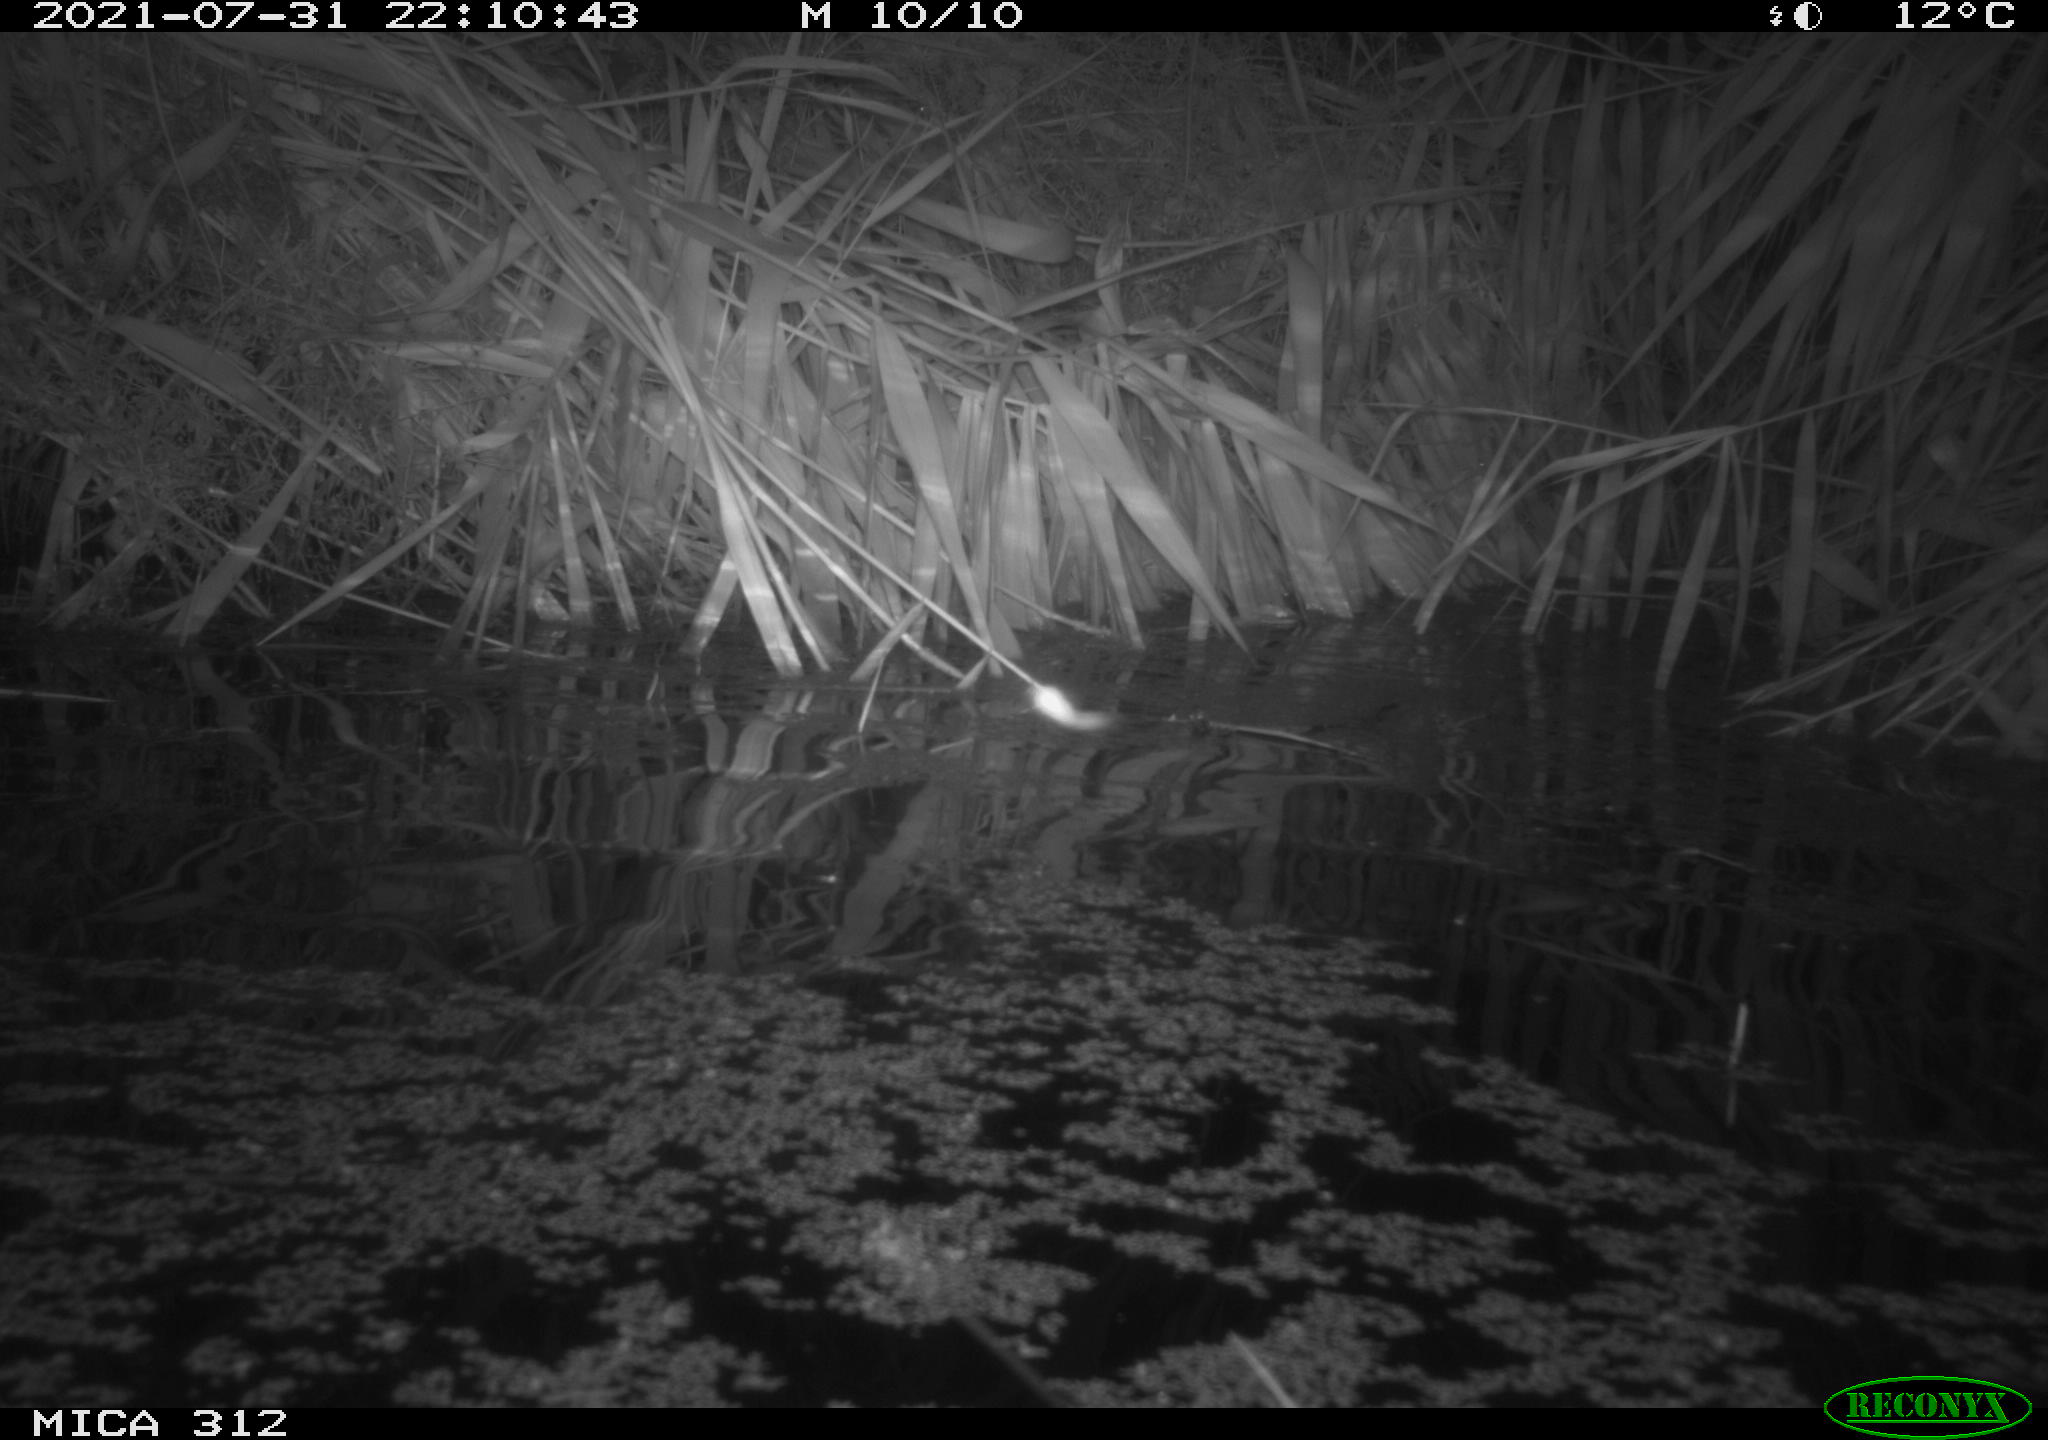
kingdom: Animalia
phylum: Chordata
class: Mammalia
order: Rodentia
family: Muridae
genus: Rattus
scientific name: Rattus norvegicus
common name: Brown rat
